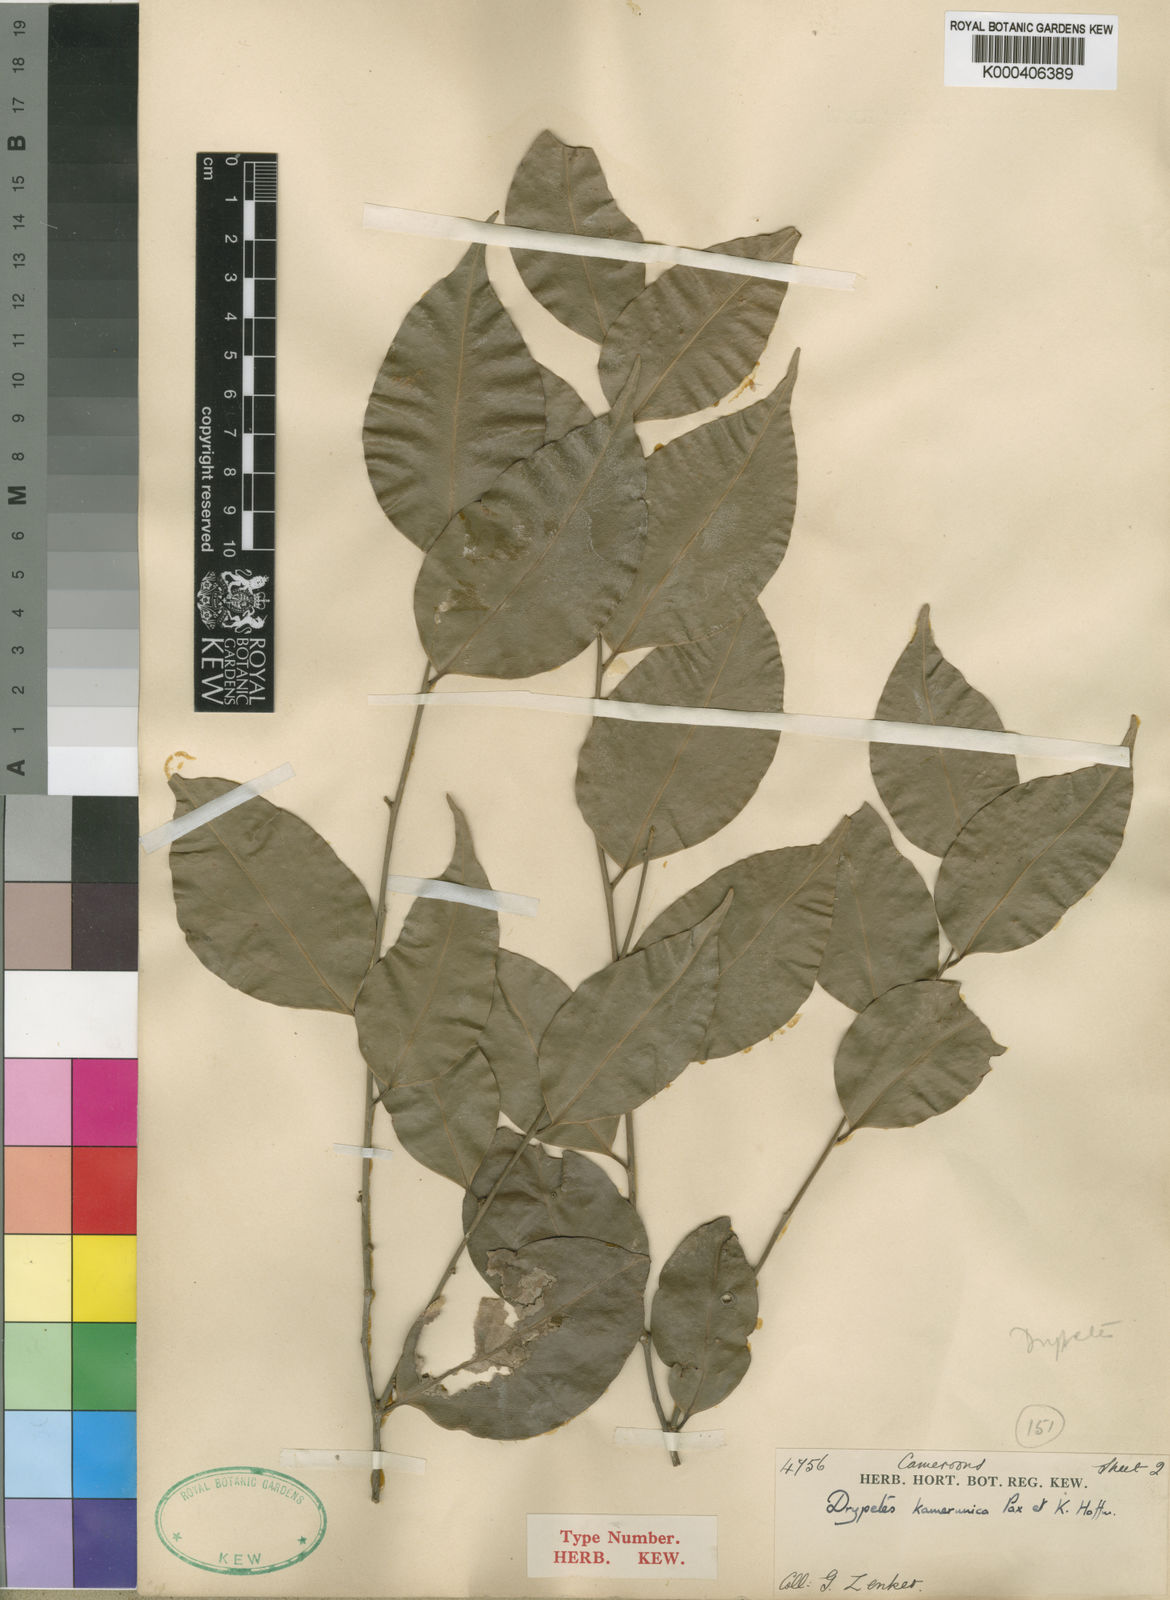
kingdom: Plantae
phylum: Tracheophyta
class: Magnoliopsida
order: Malpighiales
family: Putranjivaceae
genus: Drypetes
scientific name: Drypetes leonensis
